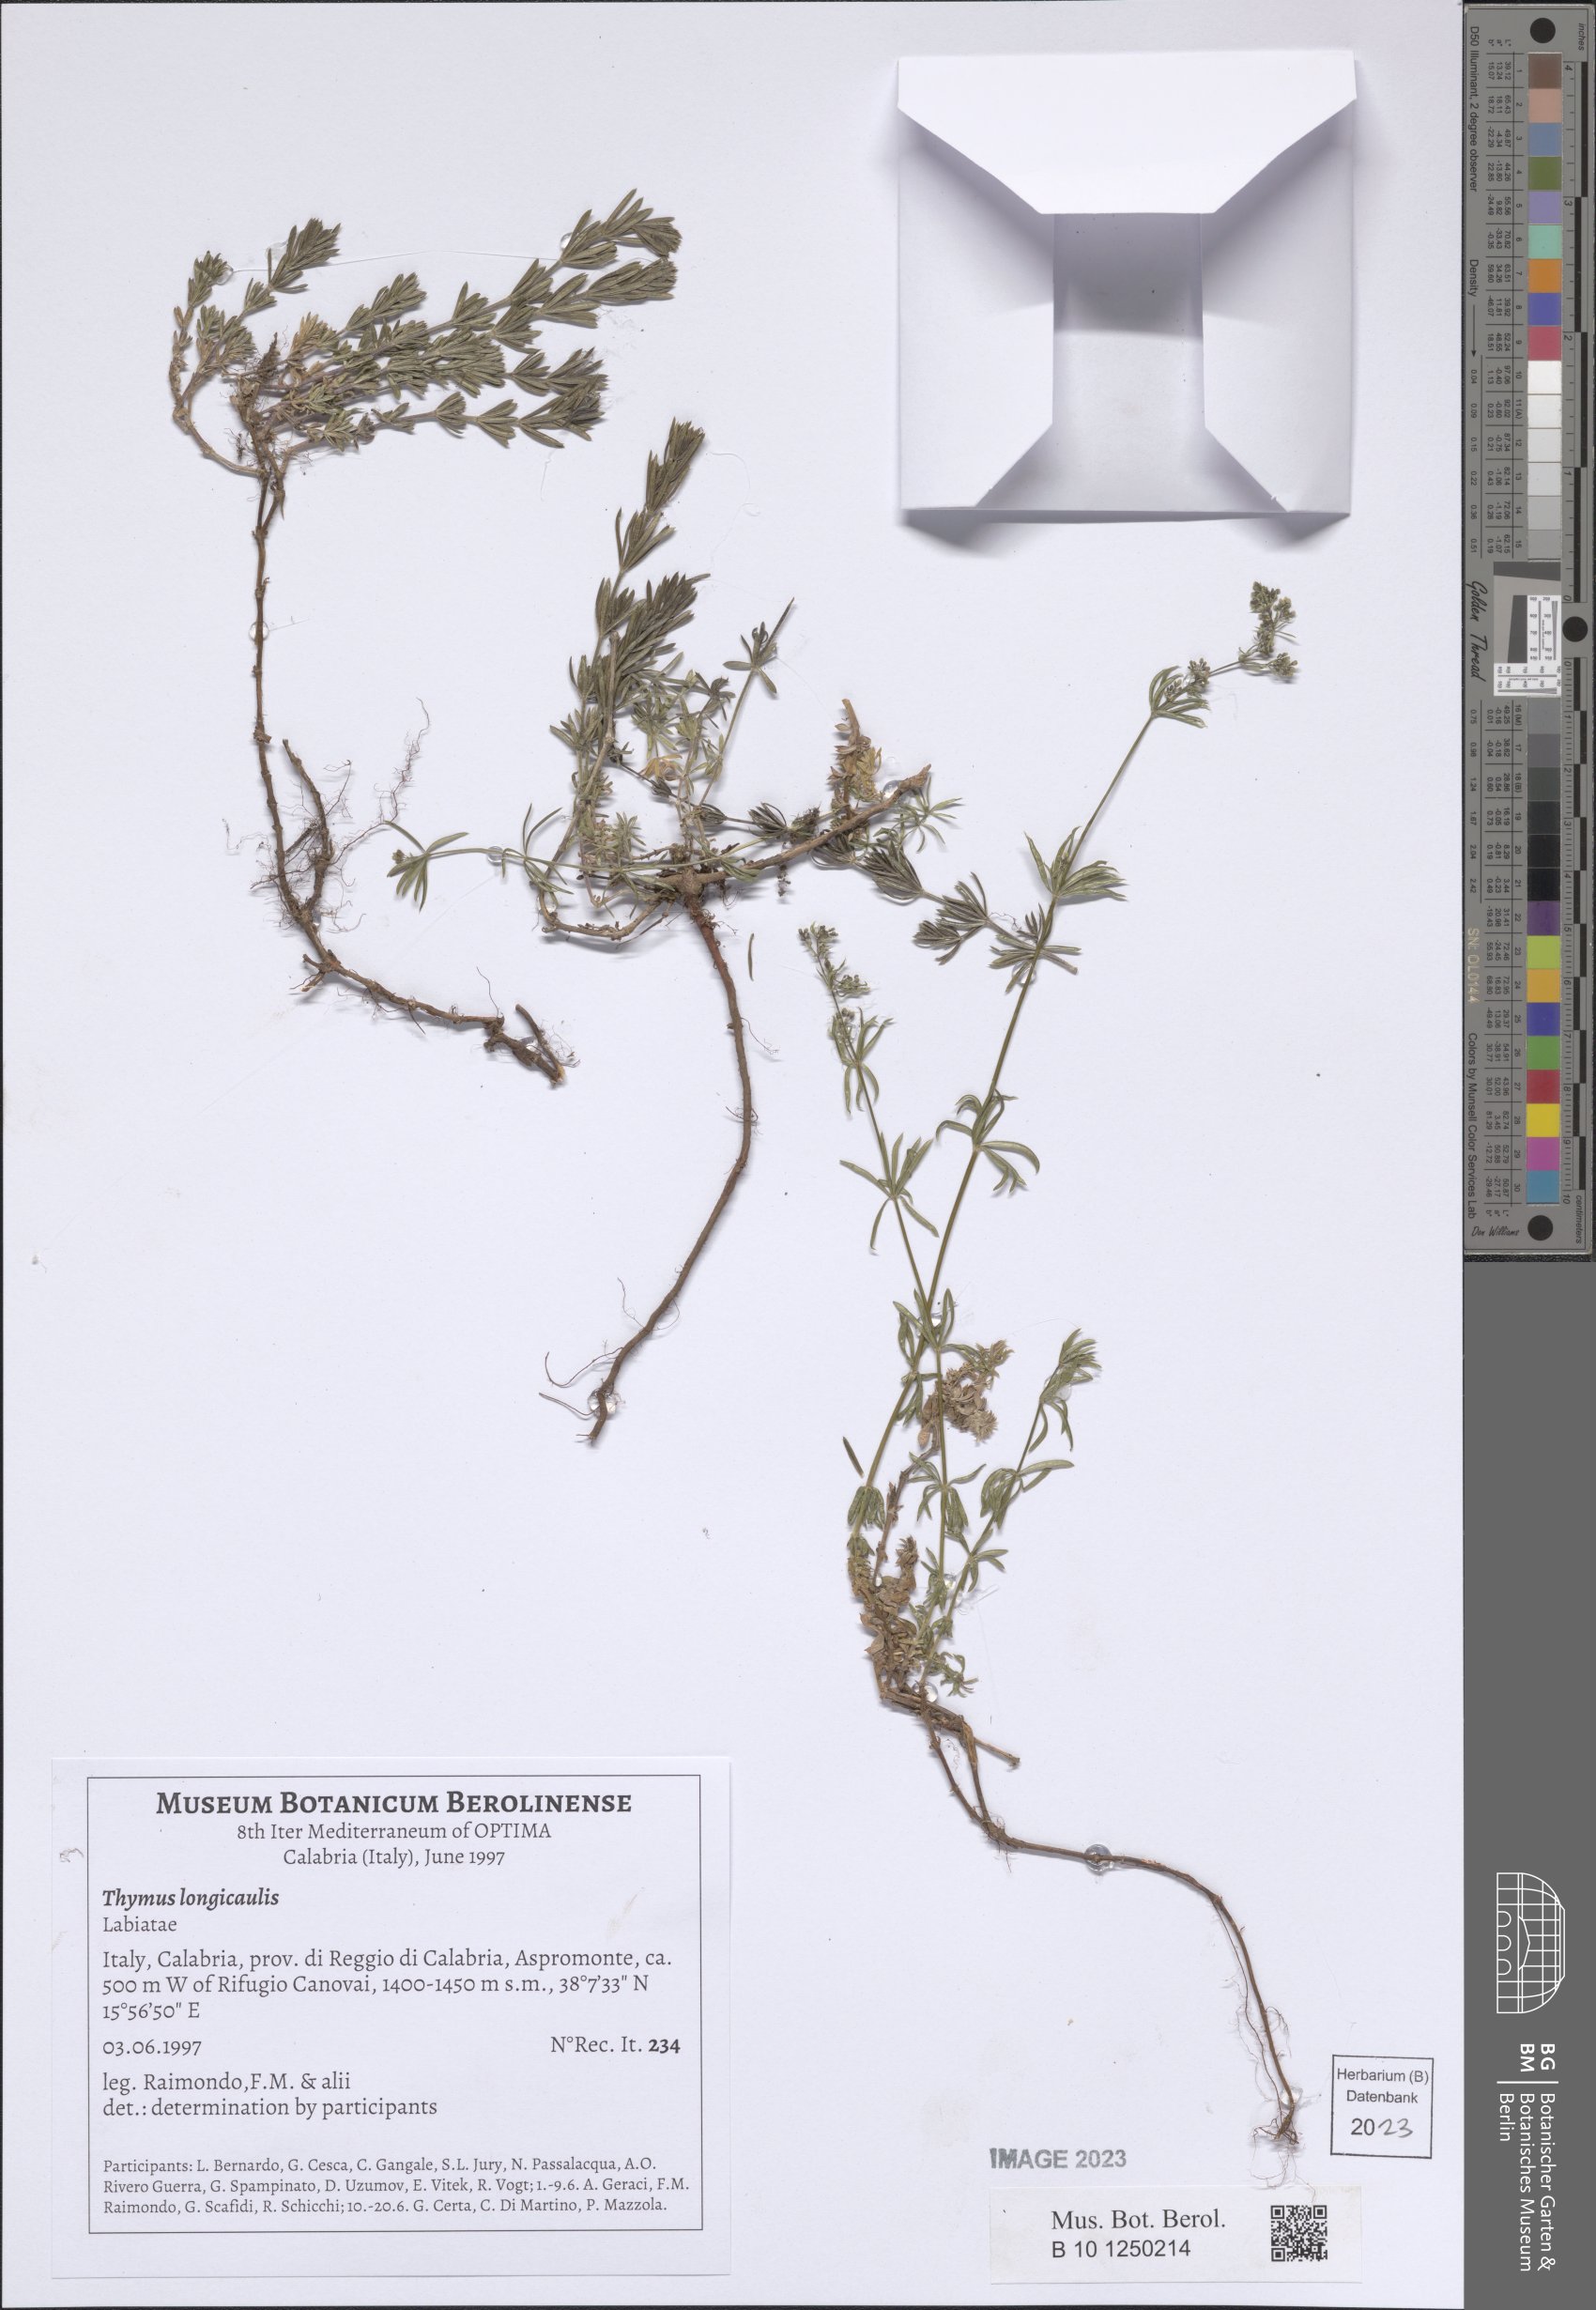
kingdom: Plantae
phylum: Tracheophyta
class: Magnoliopsida
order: Lamiales
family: Lamiaceae
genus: Thymus
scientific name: Thymus longicaulis
